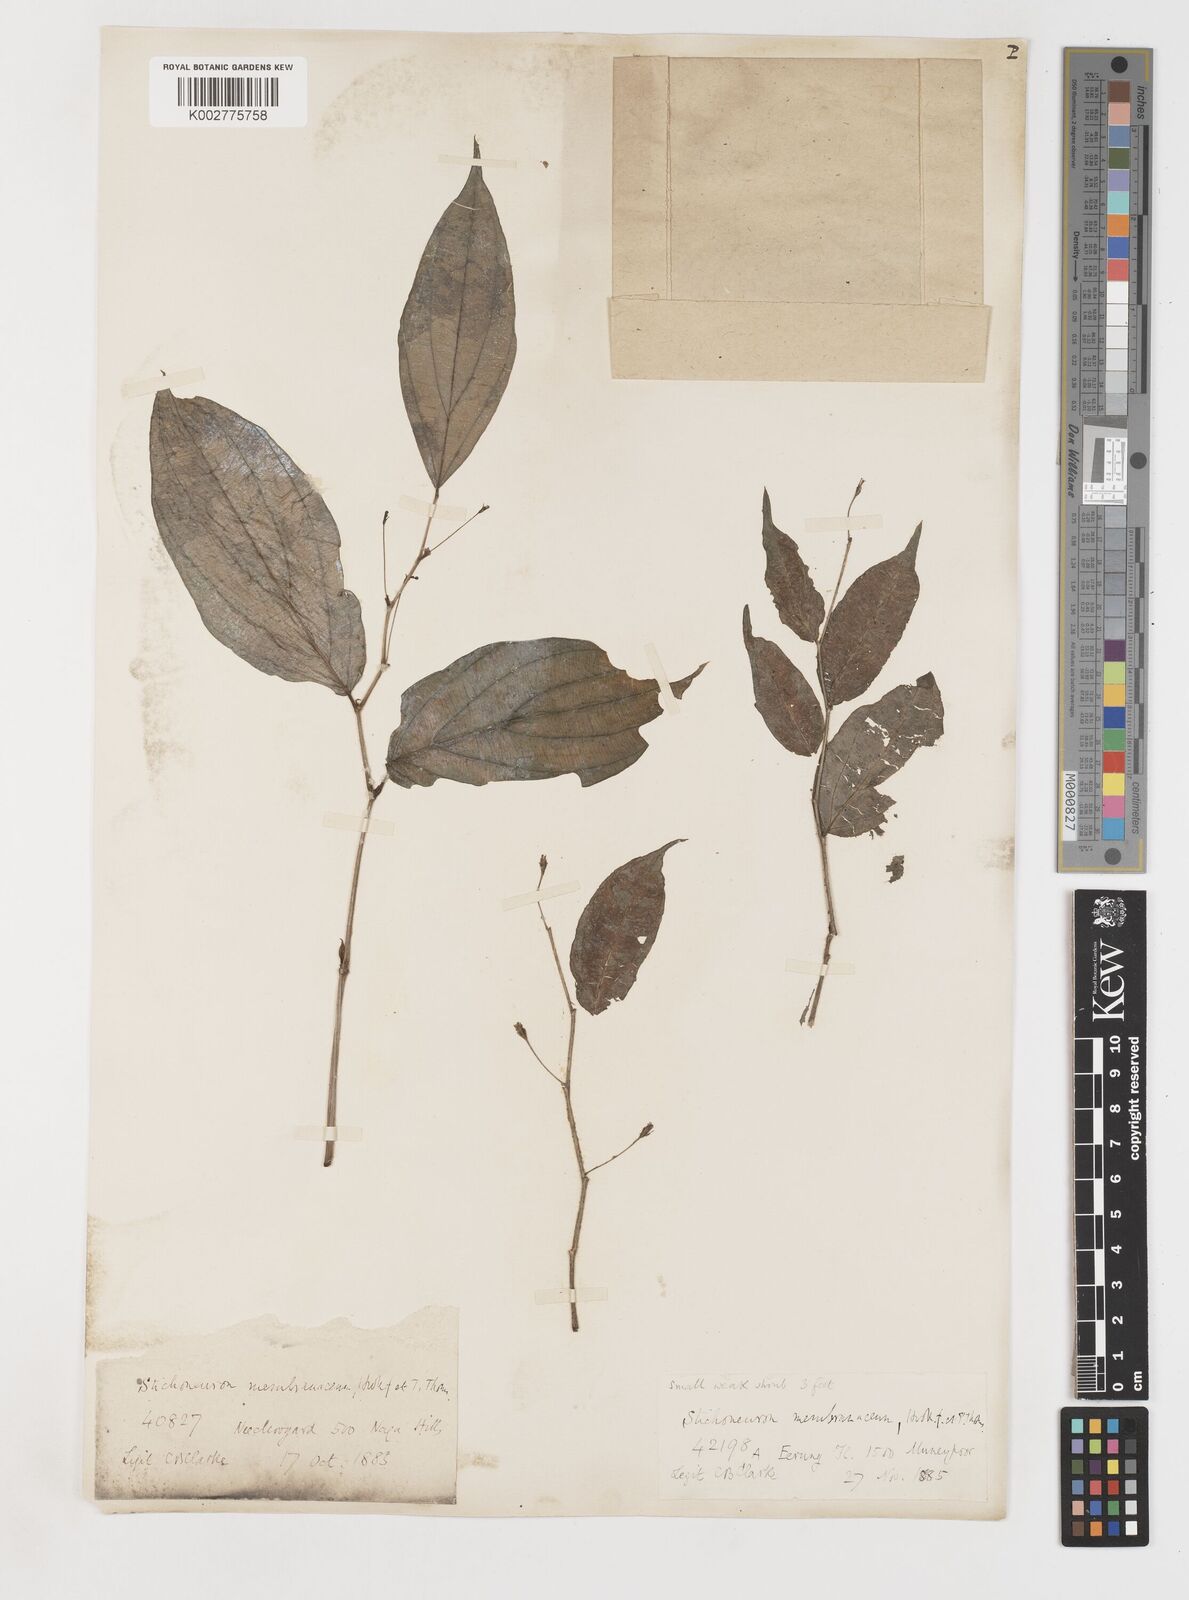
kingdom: Plantae
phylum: Tracheophyta
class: Liliopsida
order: Pandanales
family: Stemonaceae
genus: Stichoneuron
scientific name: Stichoneuron membranaceum
